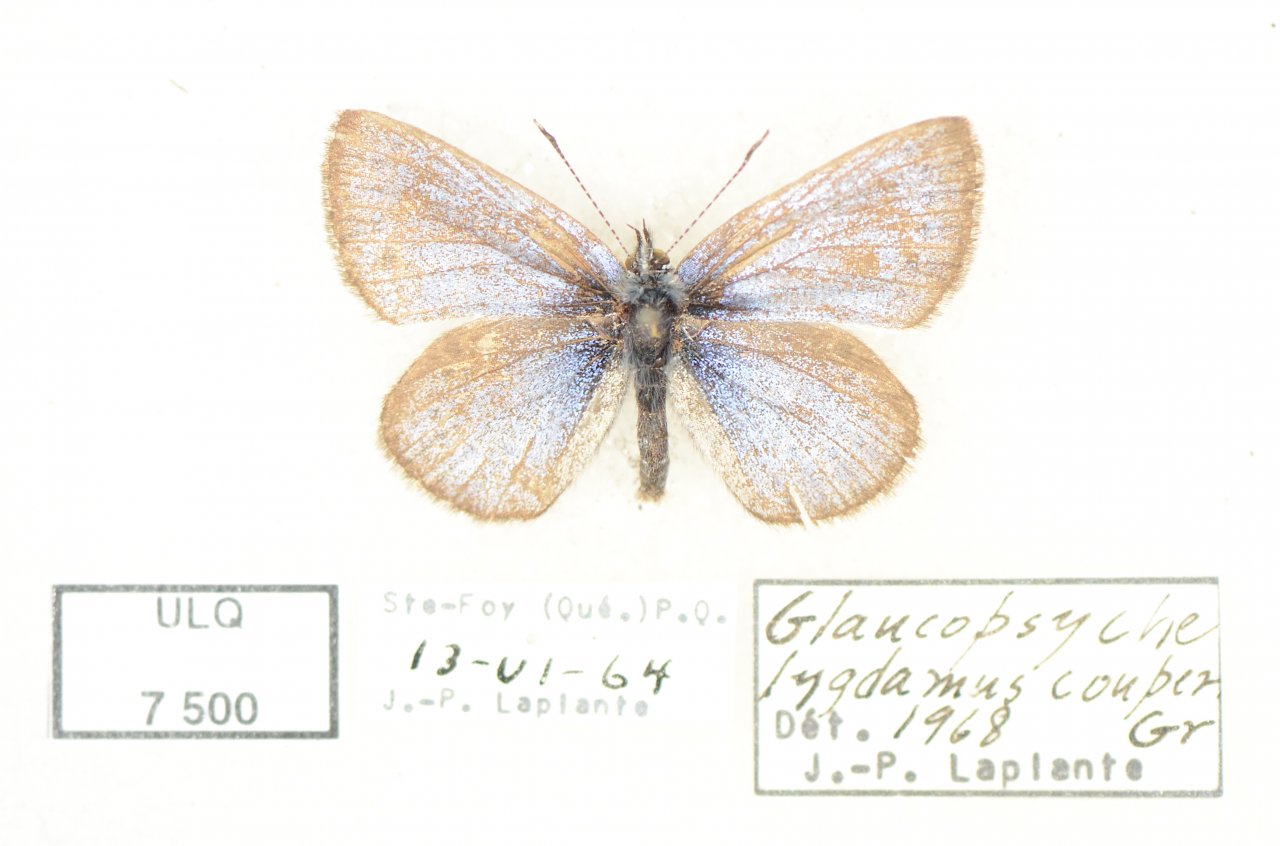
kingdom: Animalia
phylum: Arthropoda
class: Insecta
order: Lepidoptera
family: Lycaenidae
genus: Glaucopsyche
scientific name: Glaucopsyche lygdamus
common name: Silvery Blue
